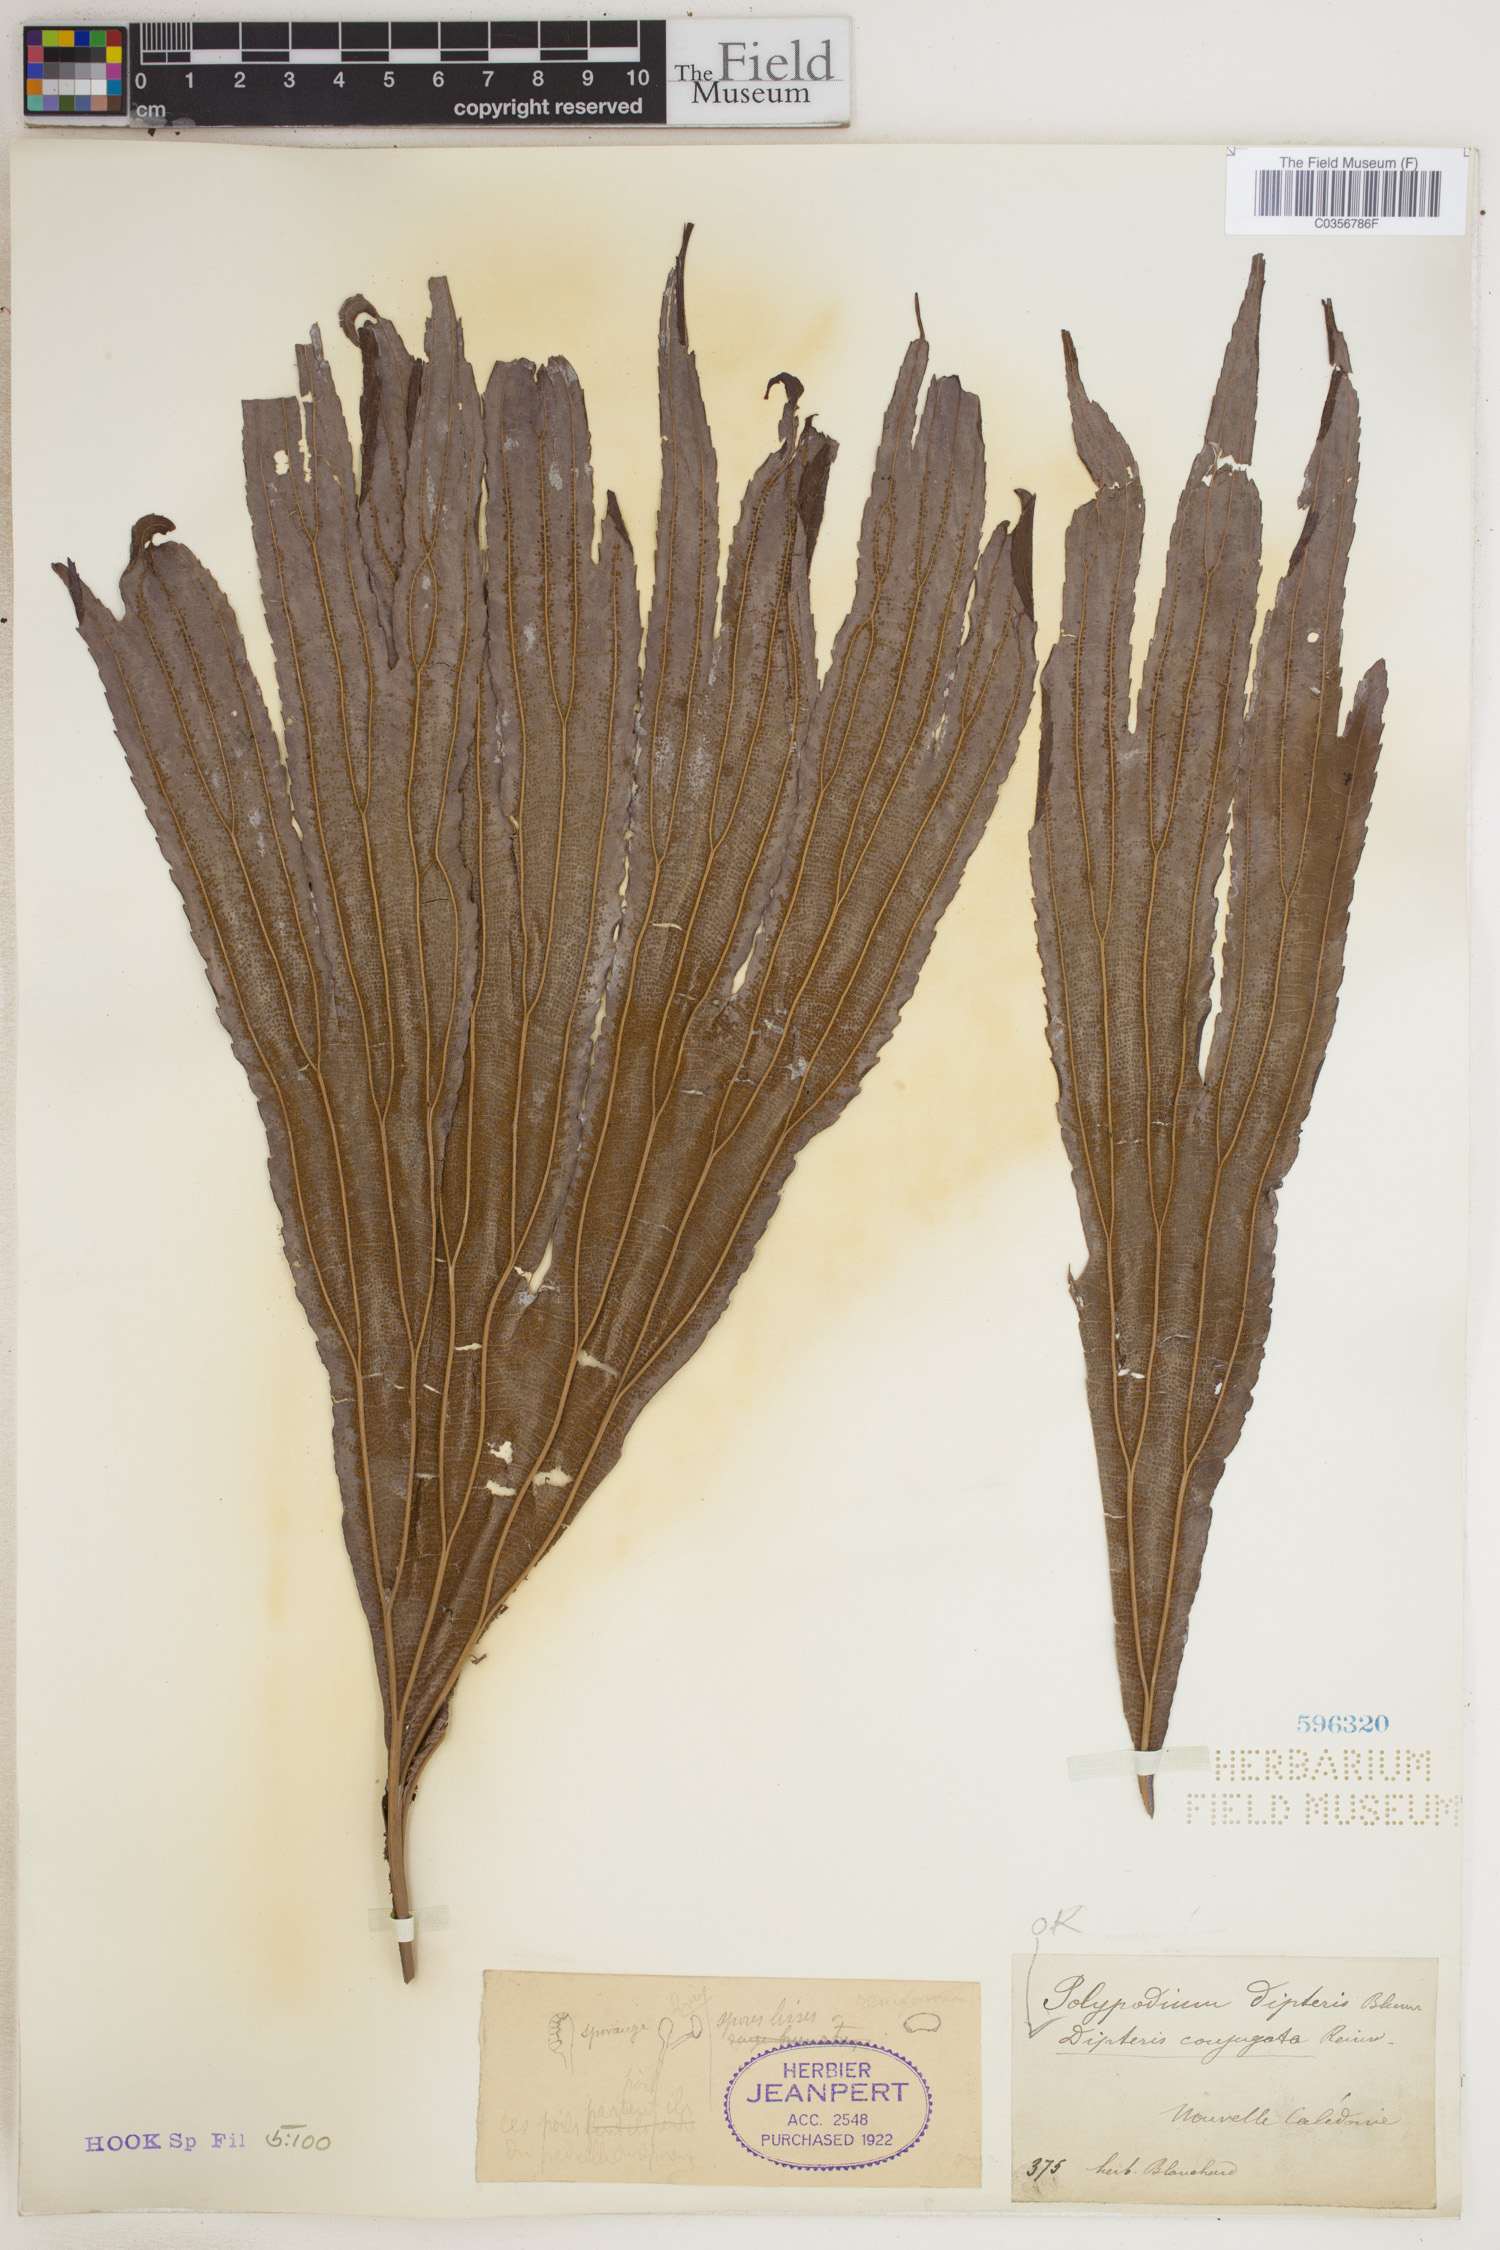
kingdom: Plantae
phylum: Tracheophyta
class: Polypodiopsida
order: Gleicheniales
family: Dipteridaceae
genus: Dipteris
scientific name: Dipteris conjugata
